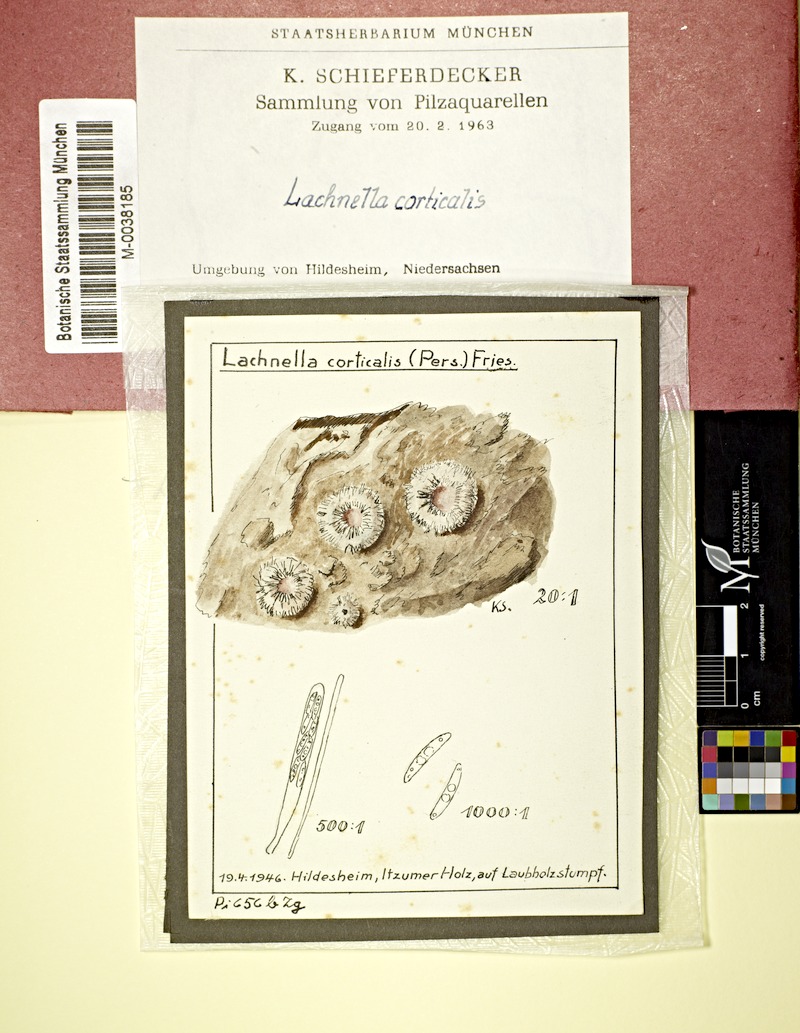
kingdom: Fungi
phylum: Ascomycota
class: Leotiomycetes
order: Helotiales
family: Lachnaceae
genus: Lachnum
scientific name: Lachnum corticale
